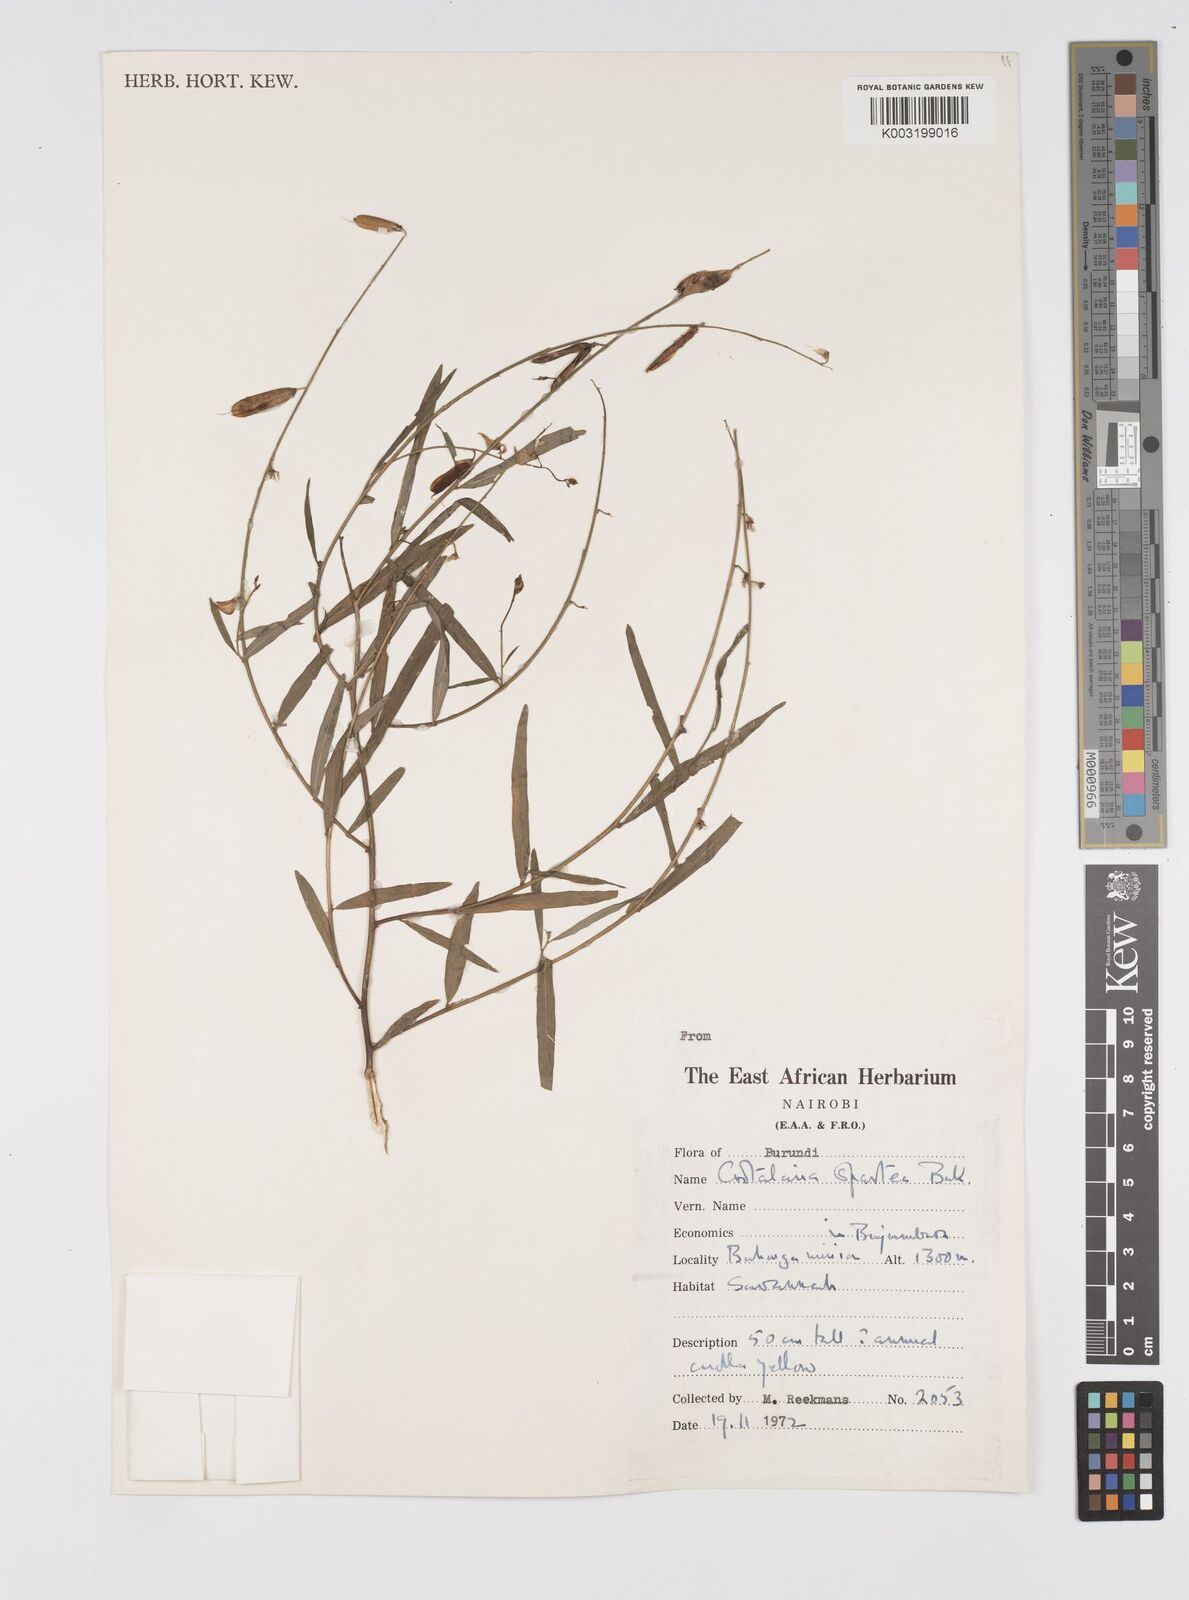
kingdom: Plantae
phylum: Tracheophyta
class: Magnoliopsida
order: Fabales
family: Fabaceae
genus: Crotalaria
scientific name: Crotalaria spartea
